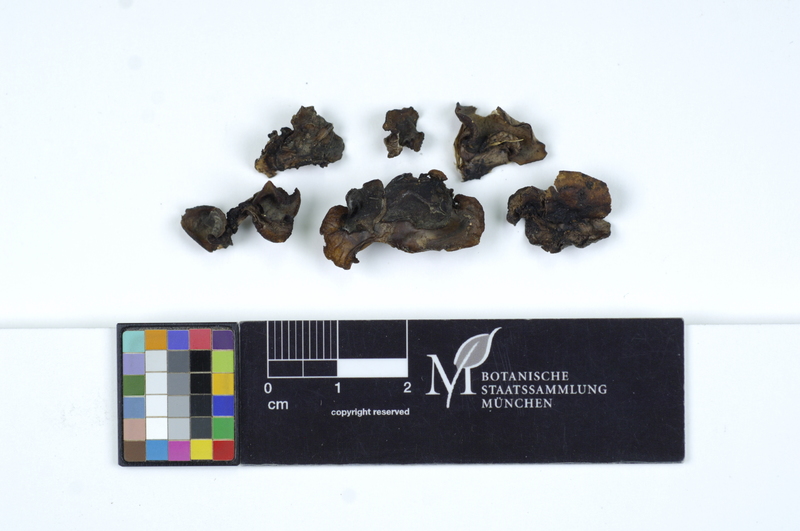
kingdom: Fungi
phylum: Ascomycota
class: Leotiomycetes
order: Helotiales
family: Gelatinodiscaceae
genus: Neobulgaria
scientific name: Neobulgaria pura
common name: Beech jelly-disc
